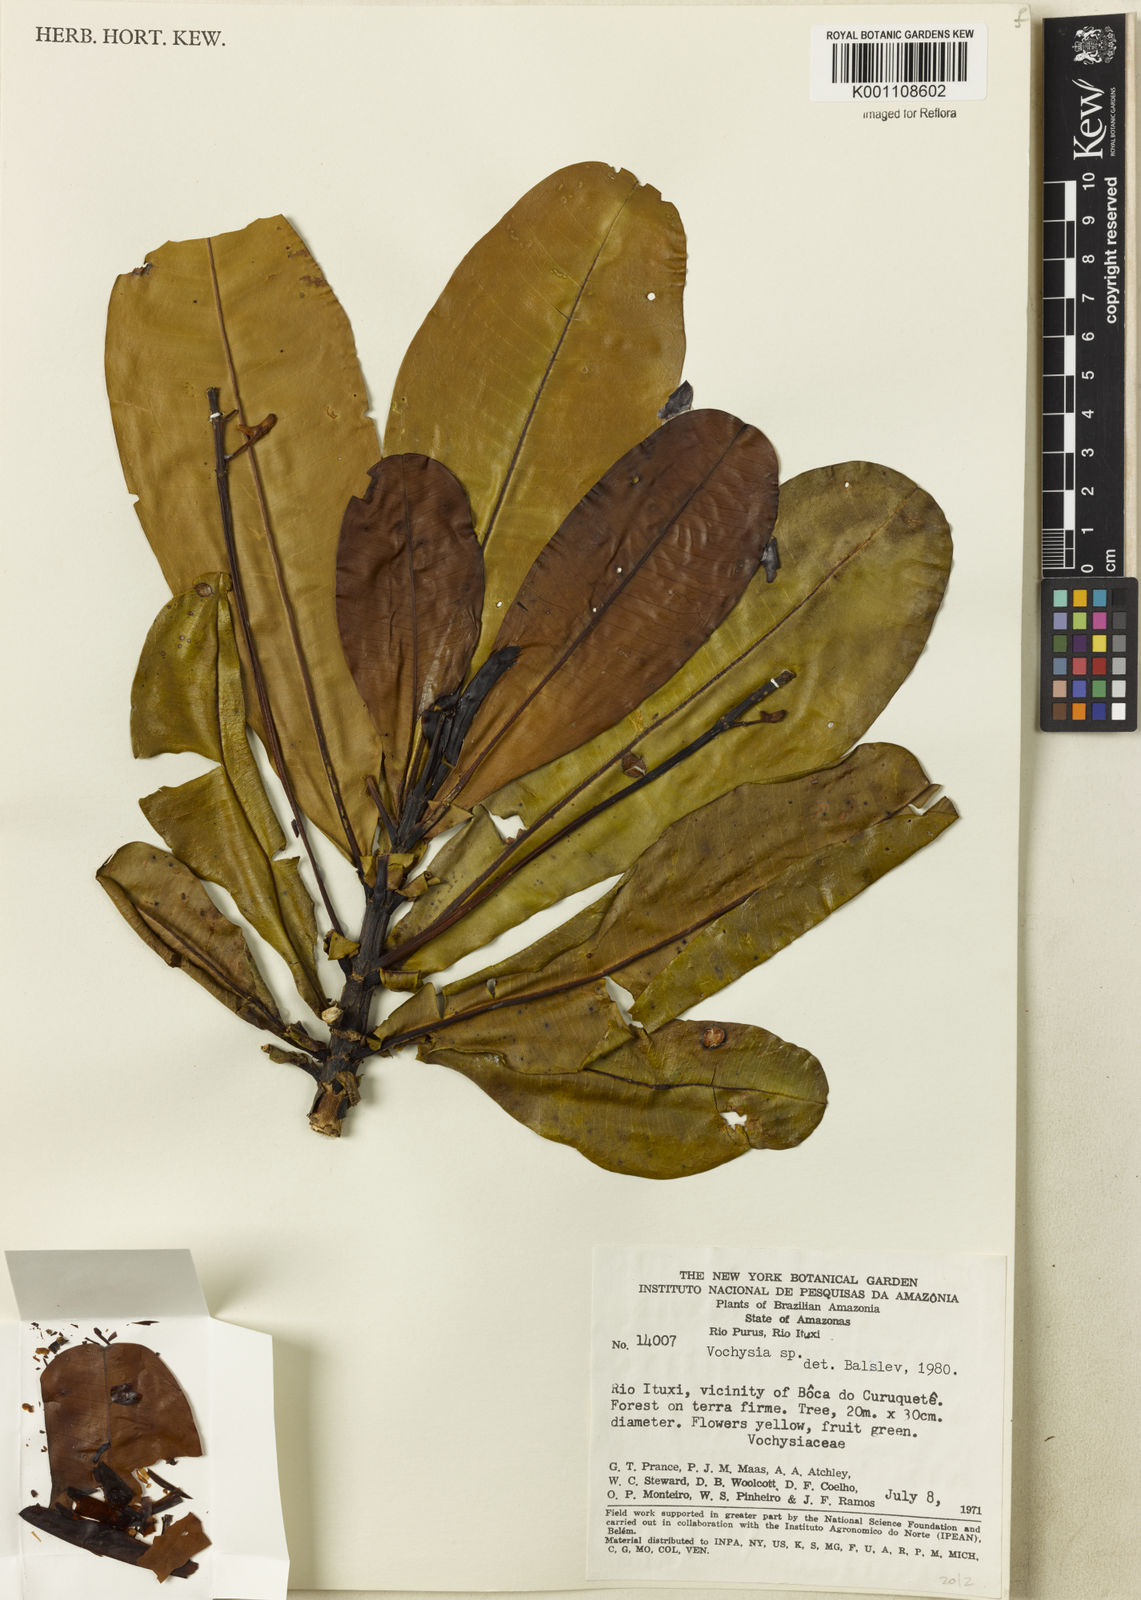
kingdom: Plantae
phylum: Tracheophyta
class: Magnoliopsida
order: Myrtales
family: Vochysiaceae
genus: Vochysia
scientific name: Vochysia
